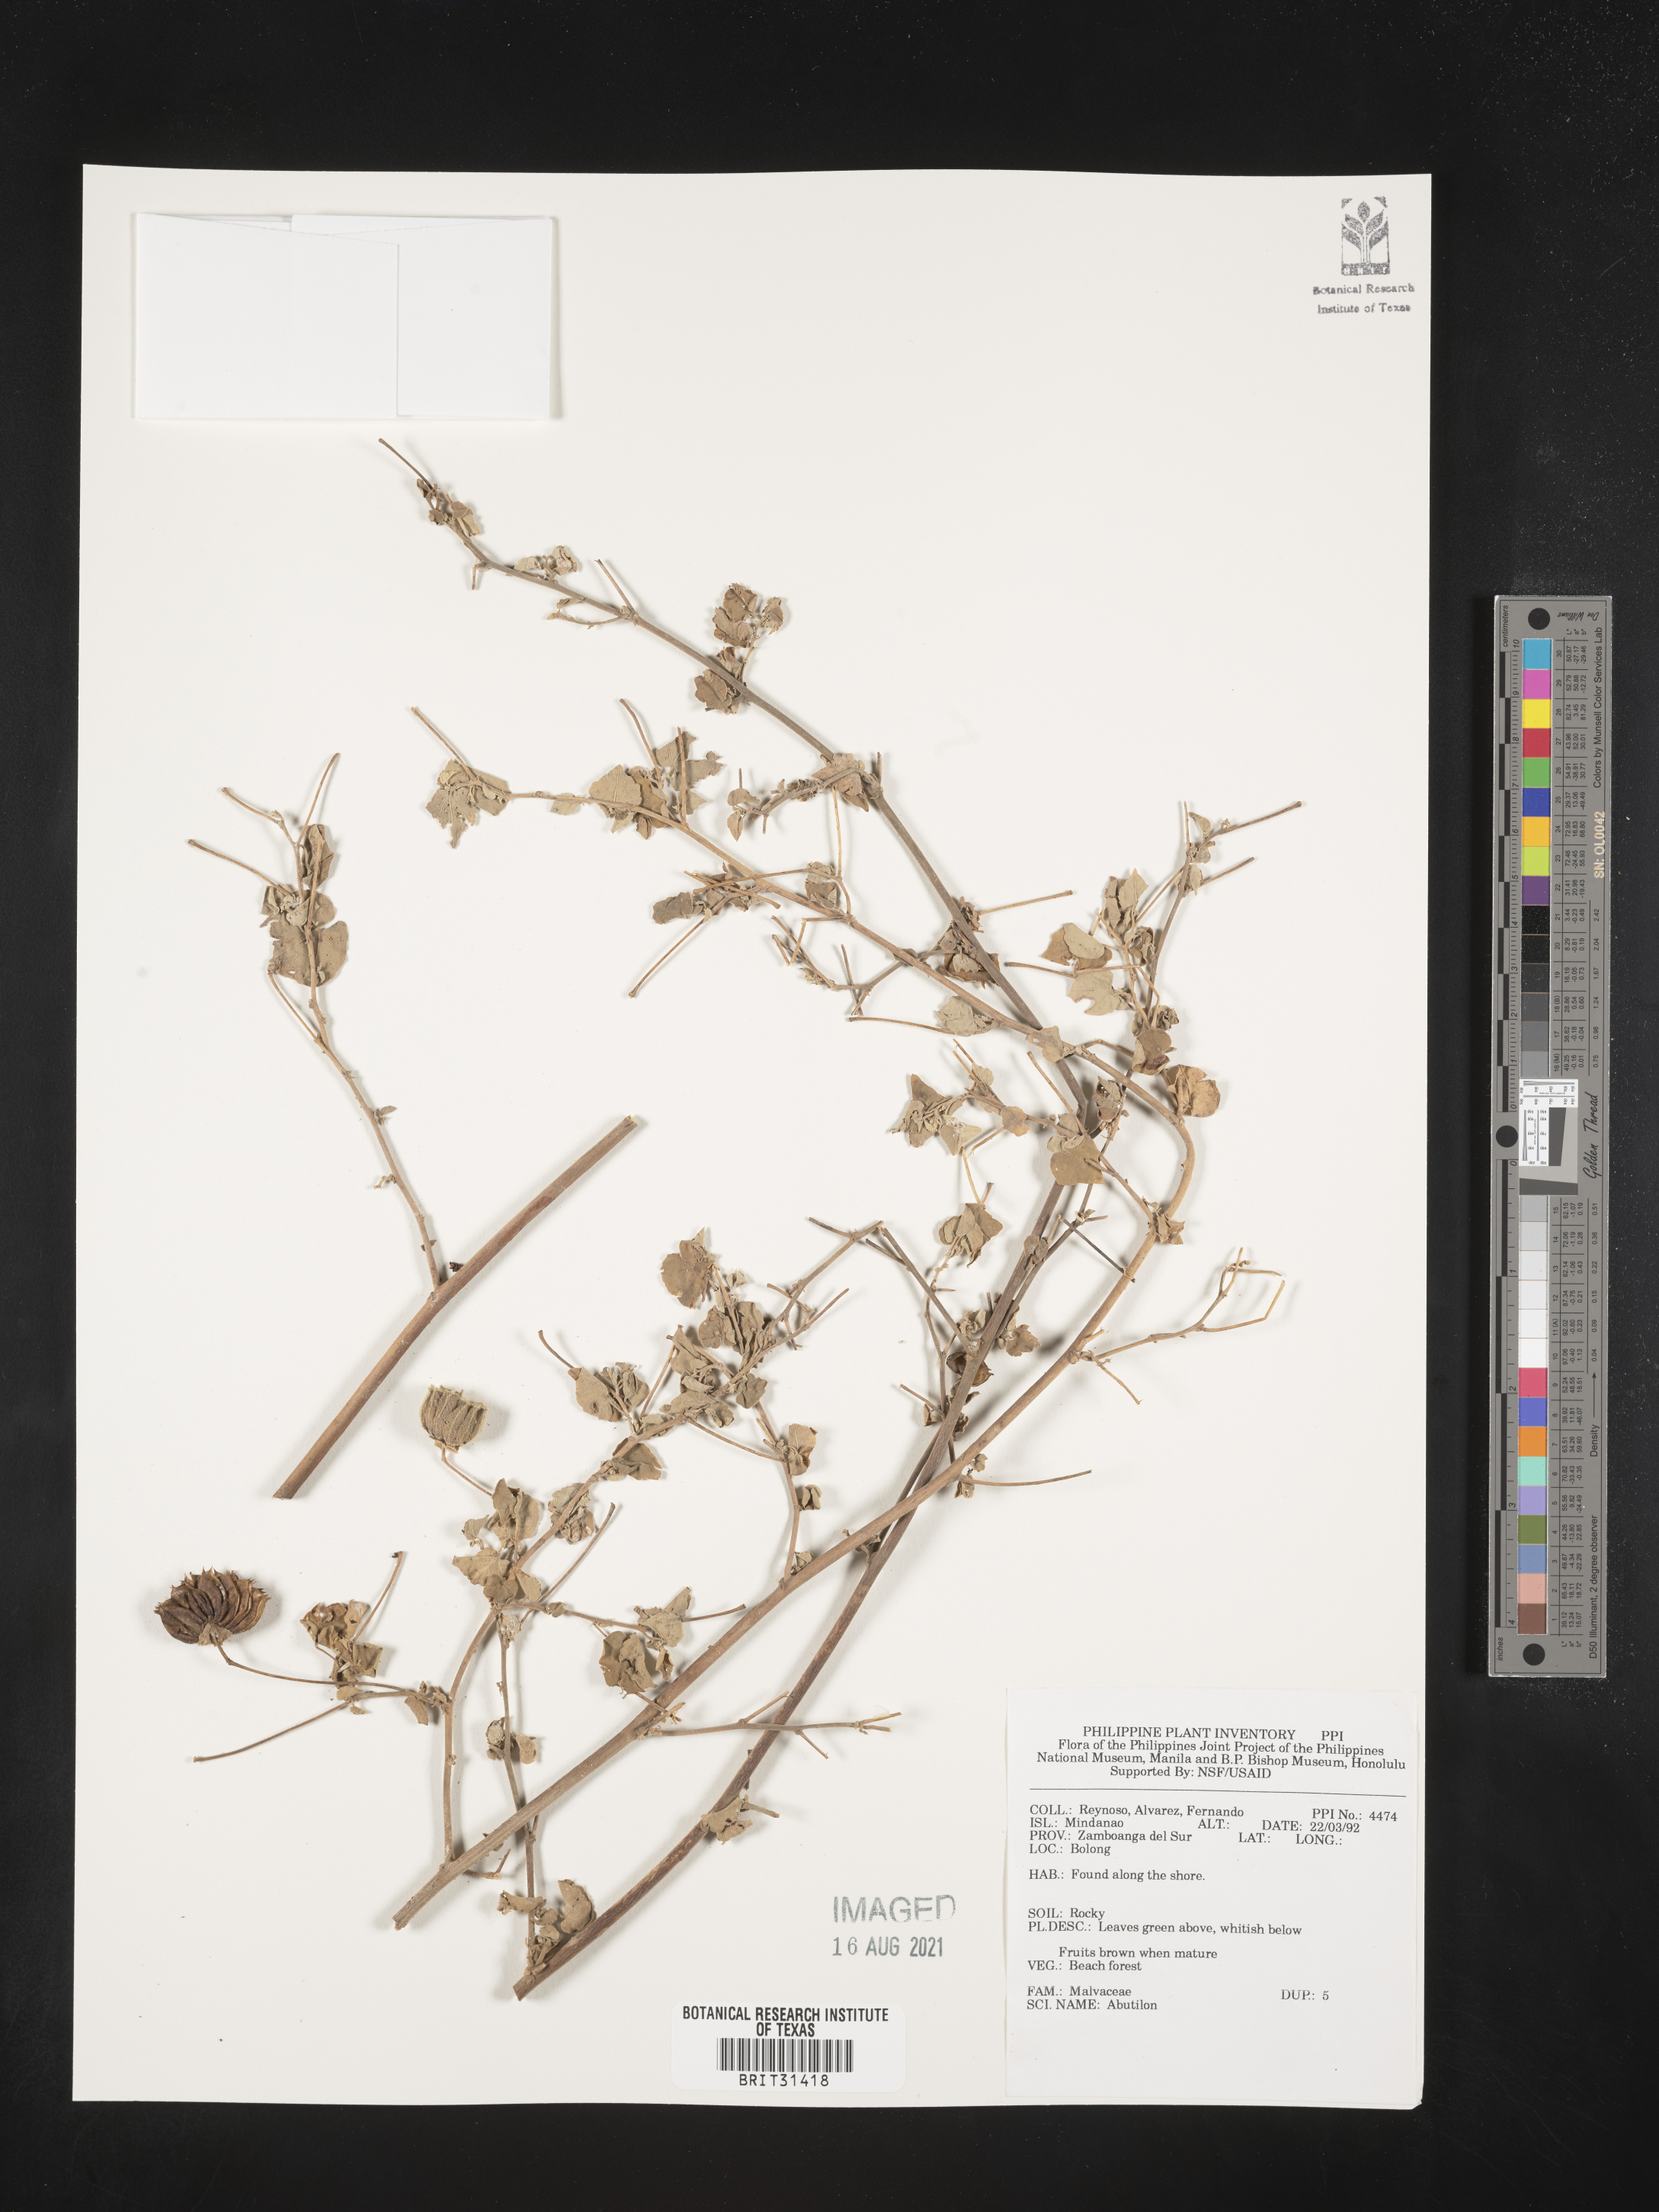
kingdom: Plantae
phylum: Tracheophyta
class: Magnoliopsida
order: Malvales
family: Malvaceae
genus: Abutilon
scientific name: Abutilon
